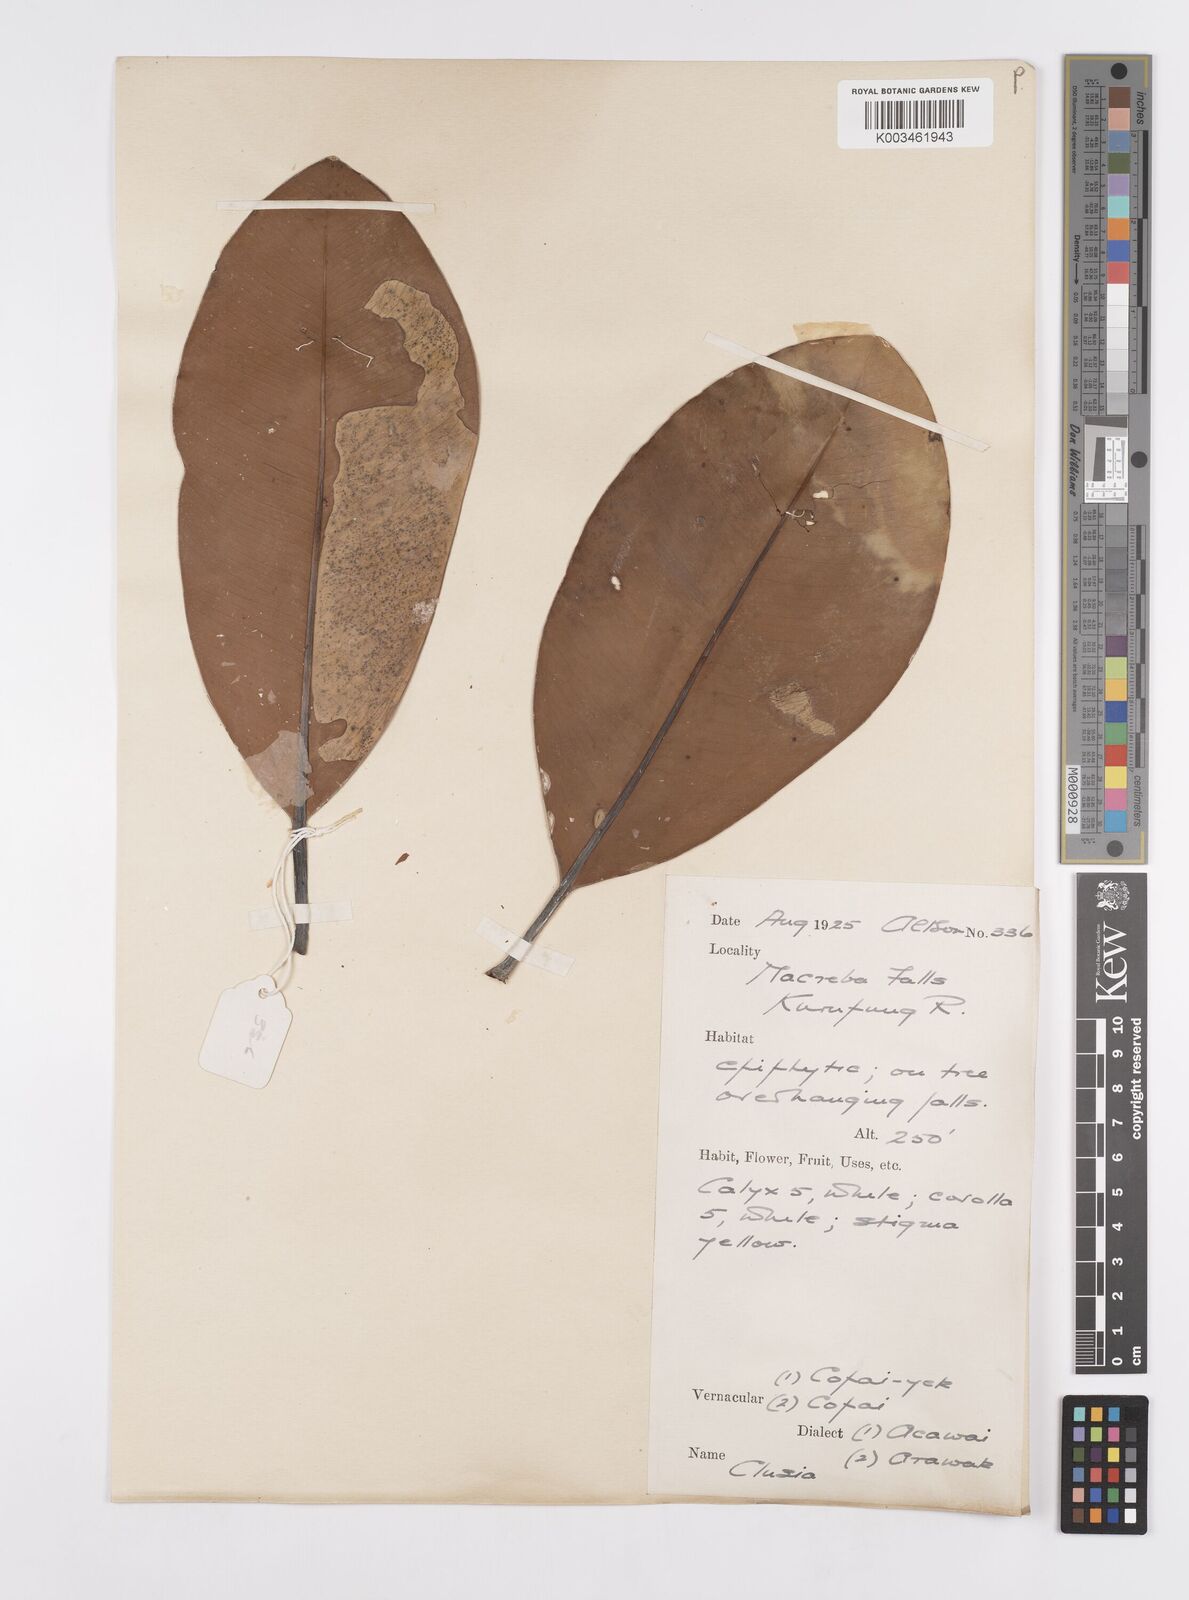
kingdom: Plantae
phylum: Tracheophyta
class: Magnoliopsida
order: Malpighiales
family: Clusiaceae
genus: Clusia
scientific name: Clusia palmicida
